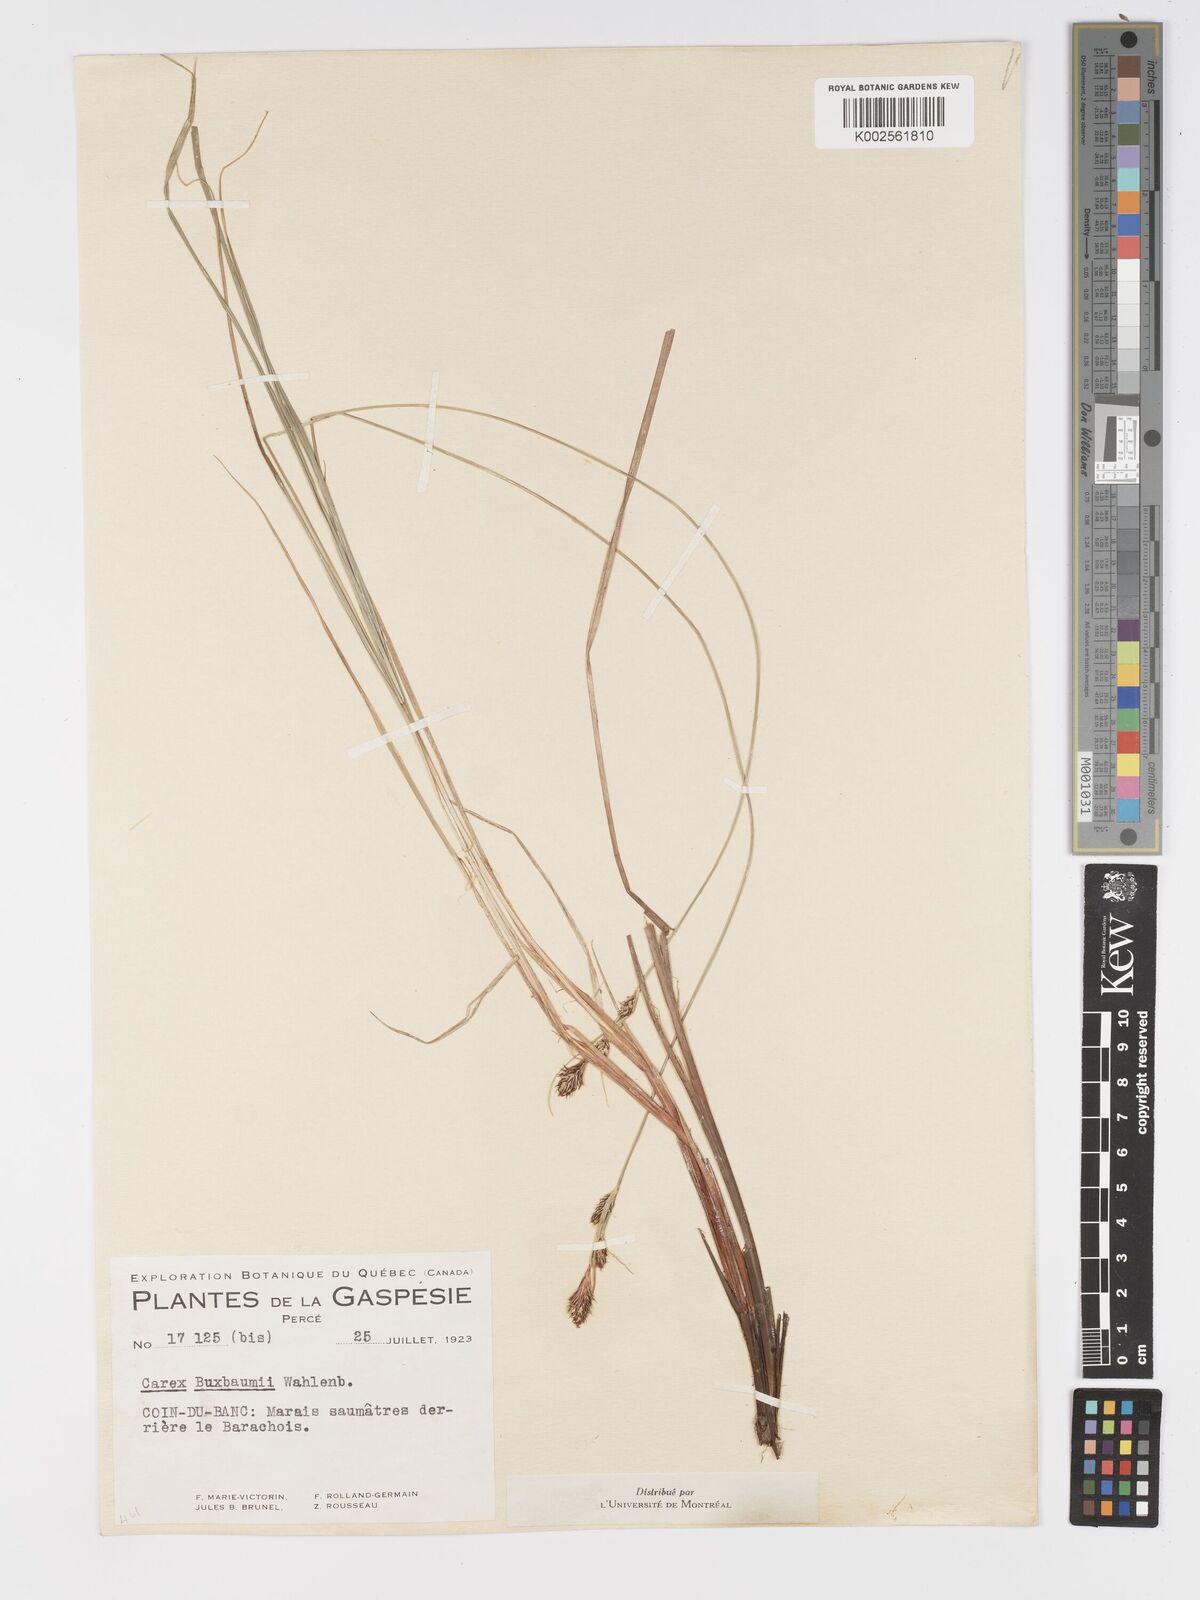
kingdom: Plantae
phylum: Tracheophyta
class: Liliopsida
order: Poales
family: Cyperaceae
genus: Carex
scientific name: Carex buxbaumii
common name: Club sedge
